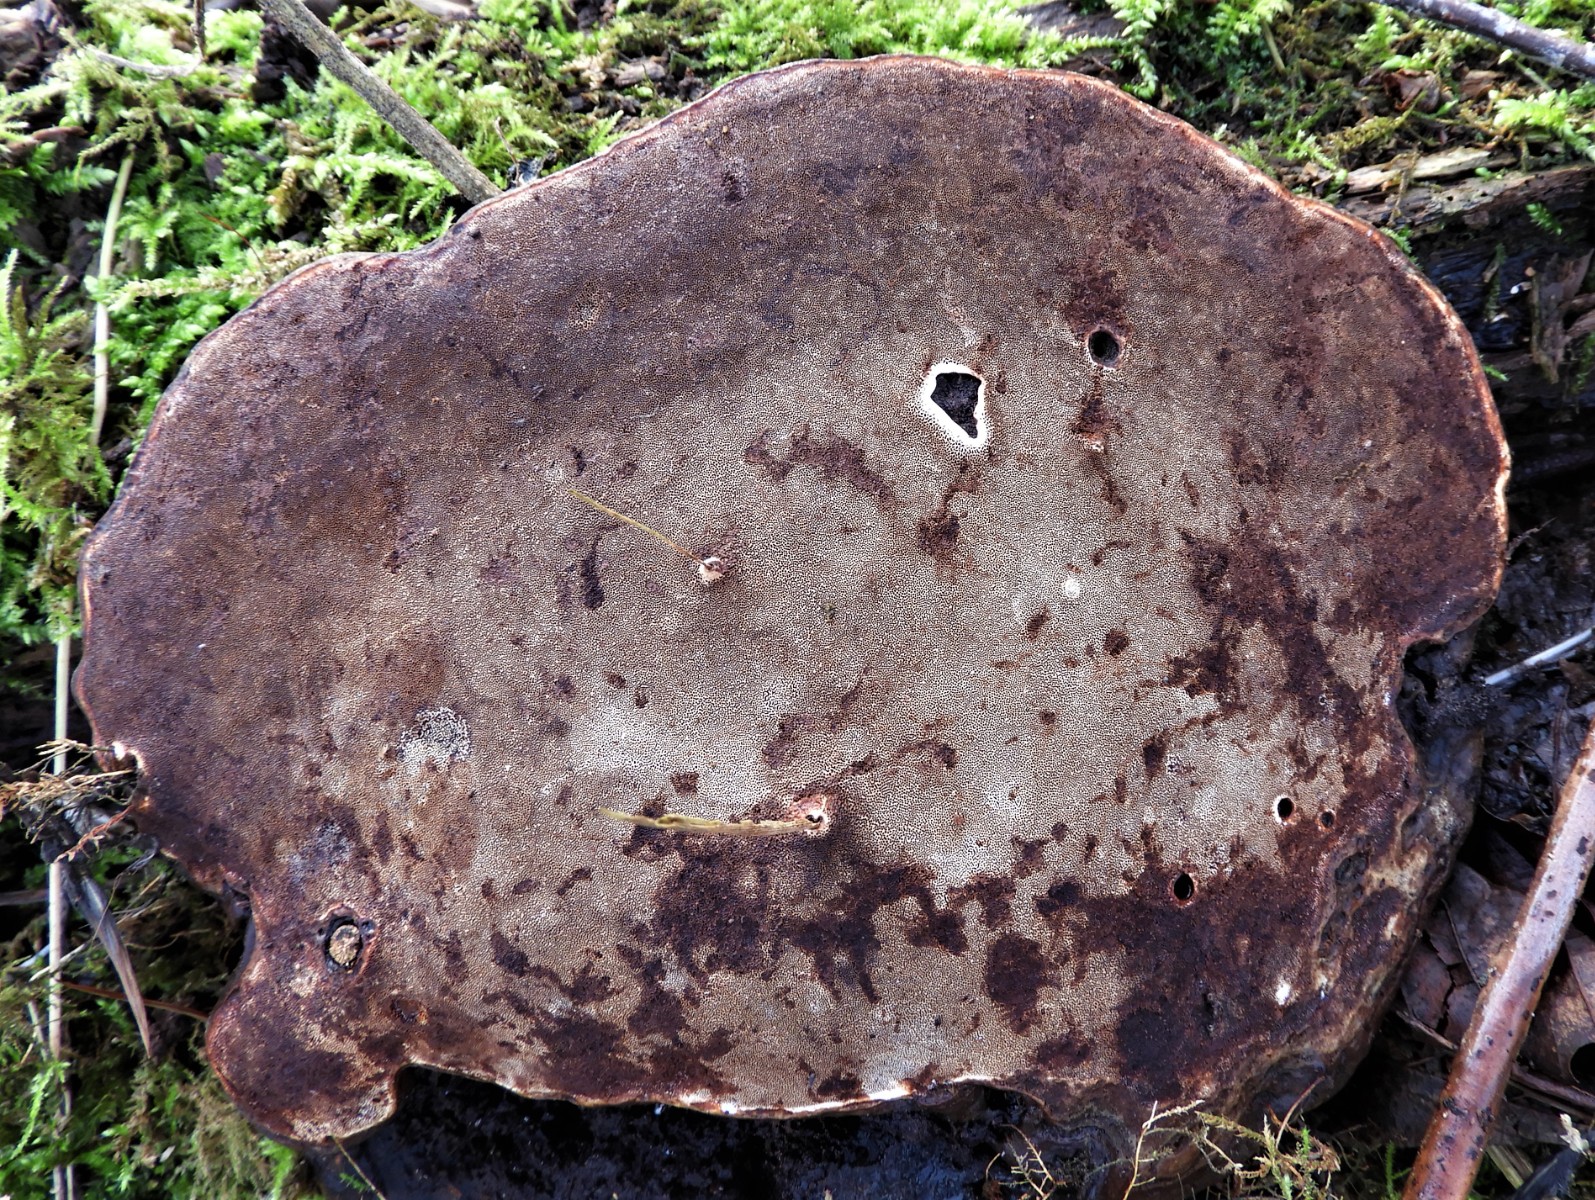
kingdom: Fungi
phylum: Basidiomycota
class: Agaricomycetes
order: Polyporales
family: Polyporaceae
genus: Ganoderma
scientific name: Ganoderma applanatum
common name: flad lakporesvamp
